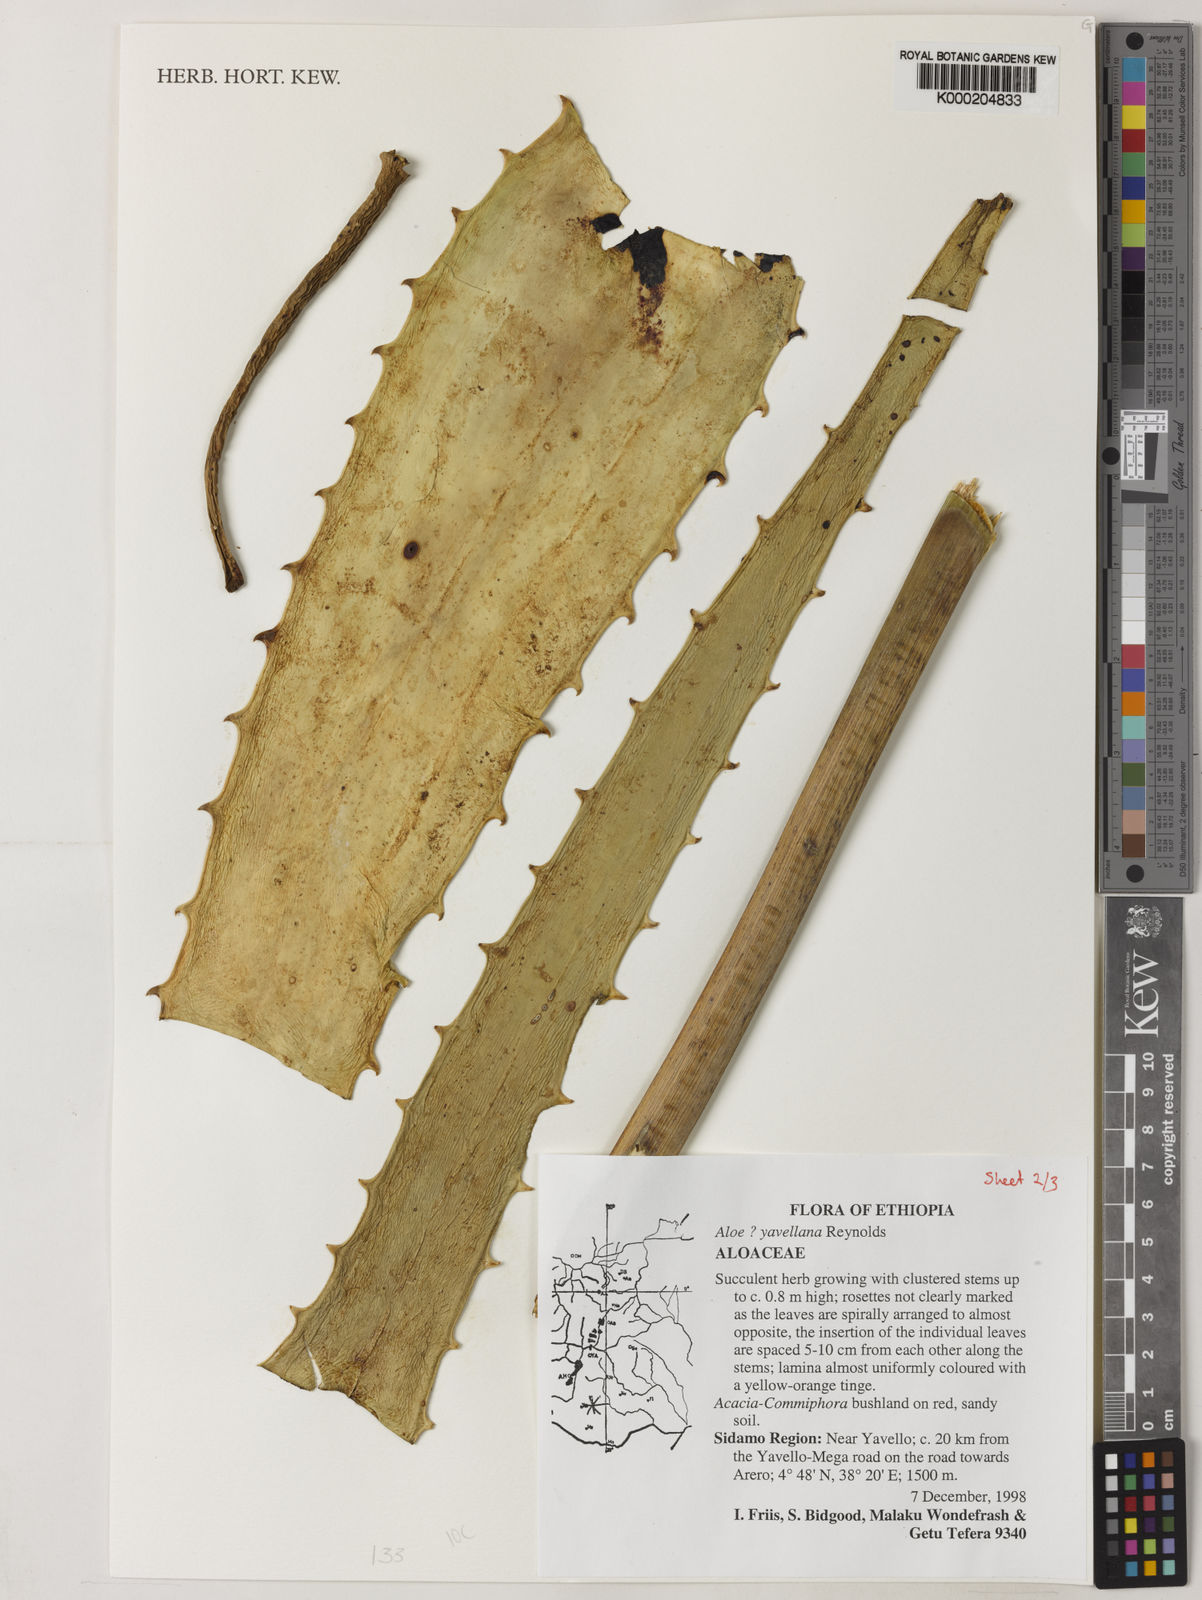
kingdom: Plantae
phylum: Tracheophyta
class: Liliopsida
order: Asparagales
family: Asphodelaceae
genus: Aloe
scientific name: Aloe yavellana
